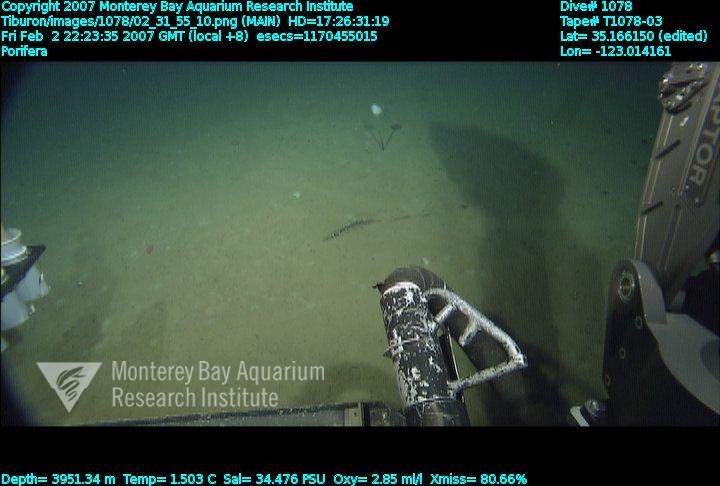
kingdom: Animalia
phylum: Porifera
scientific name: Porifera
